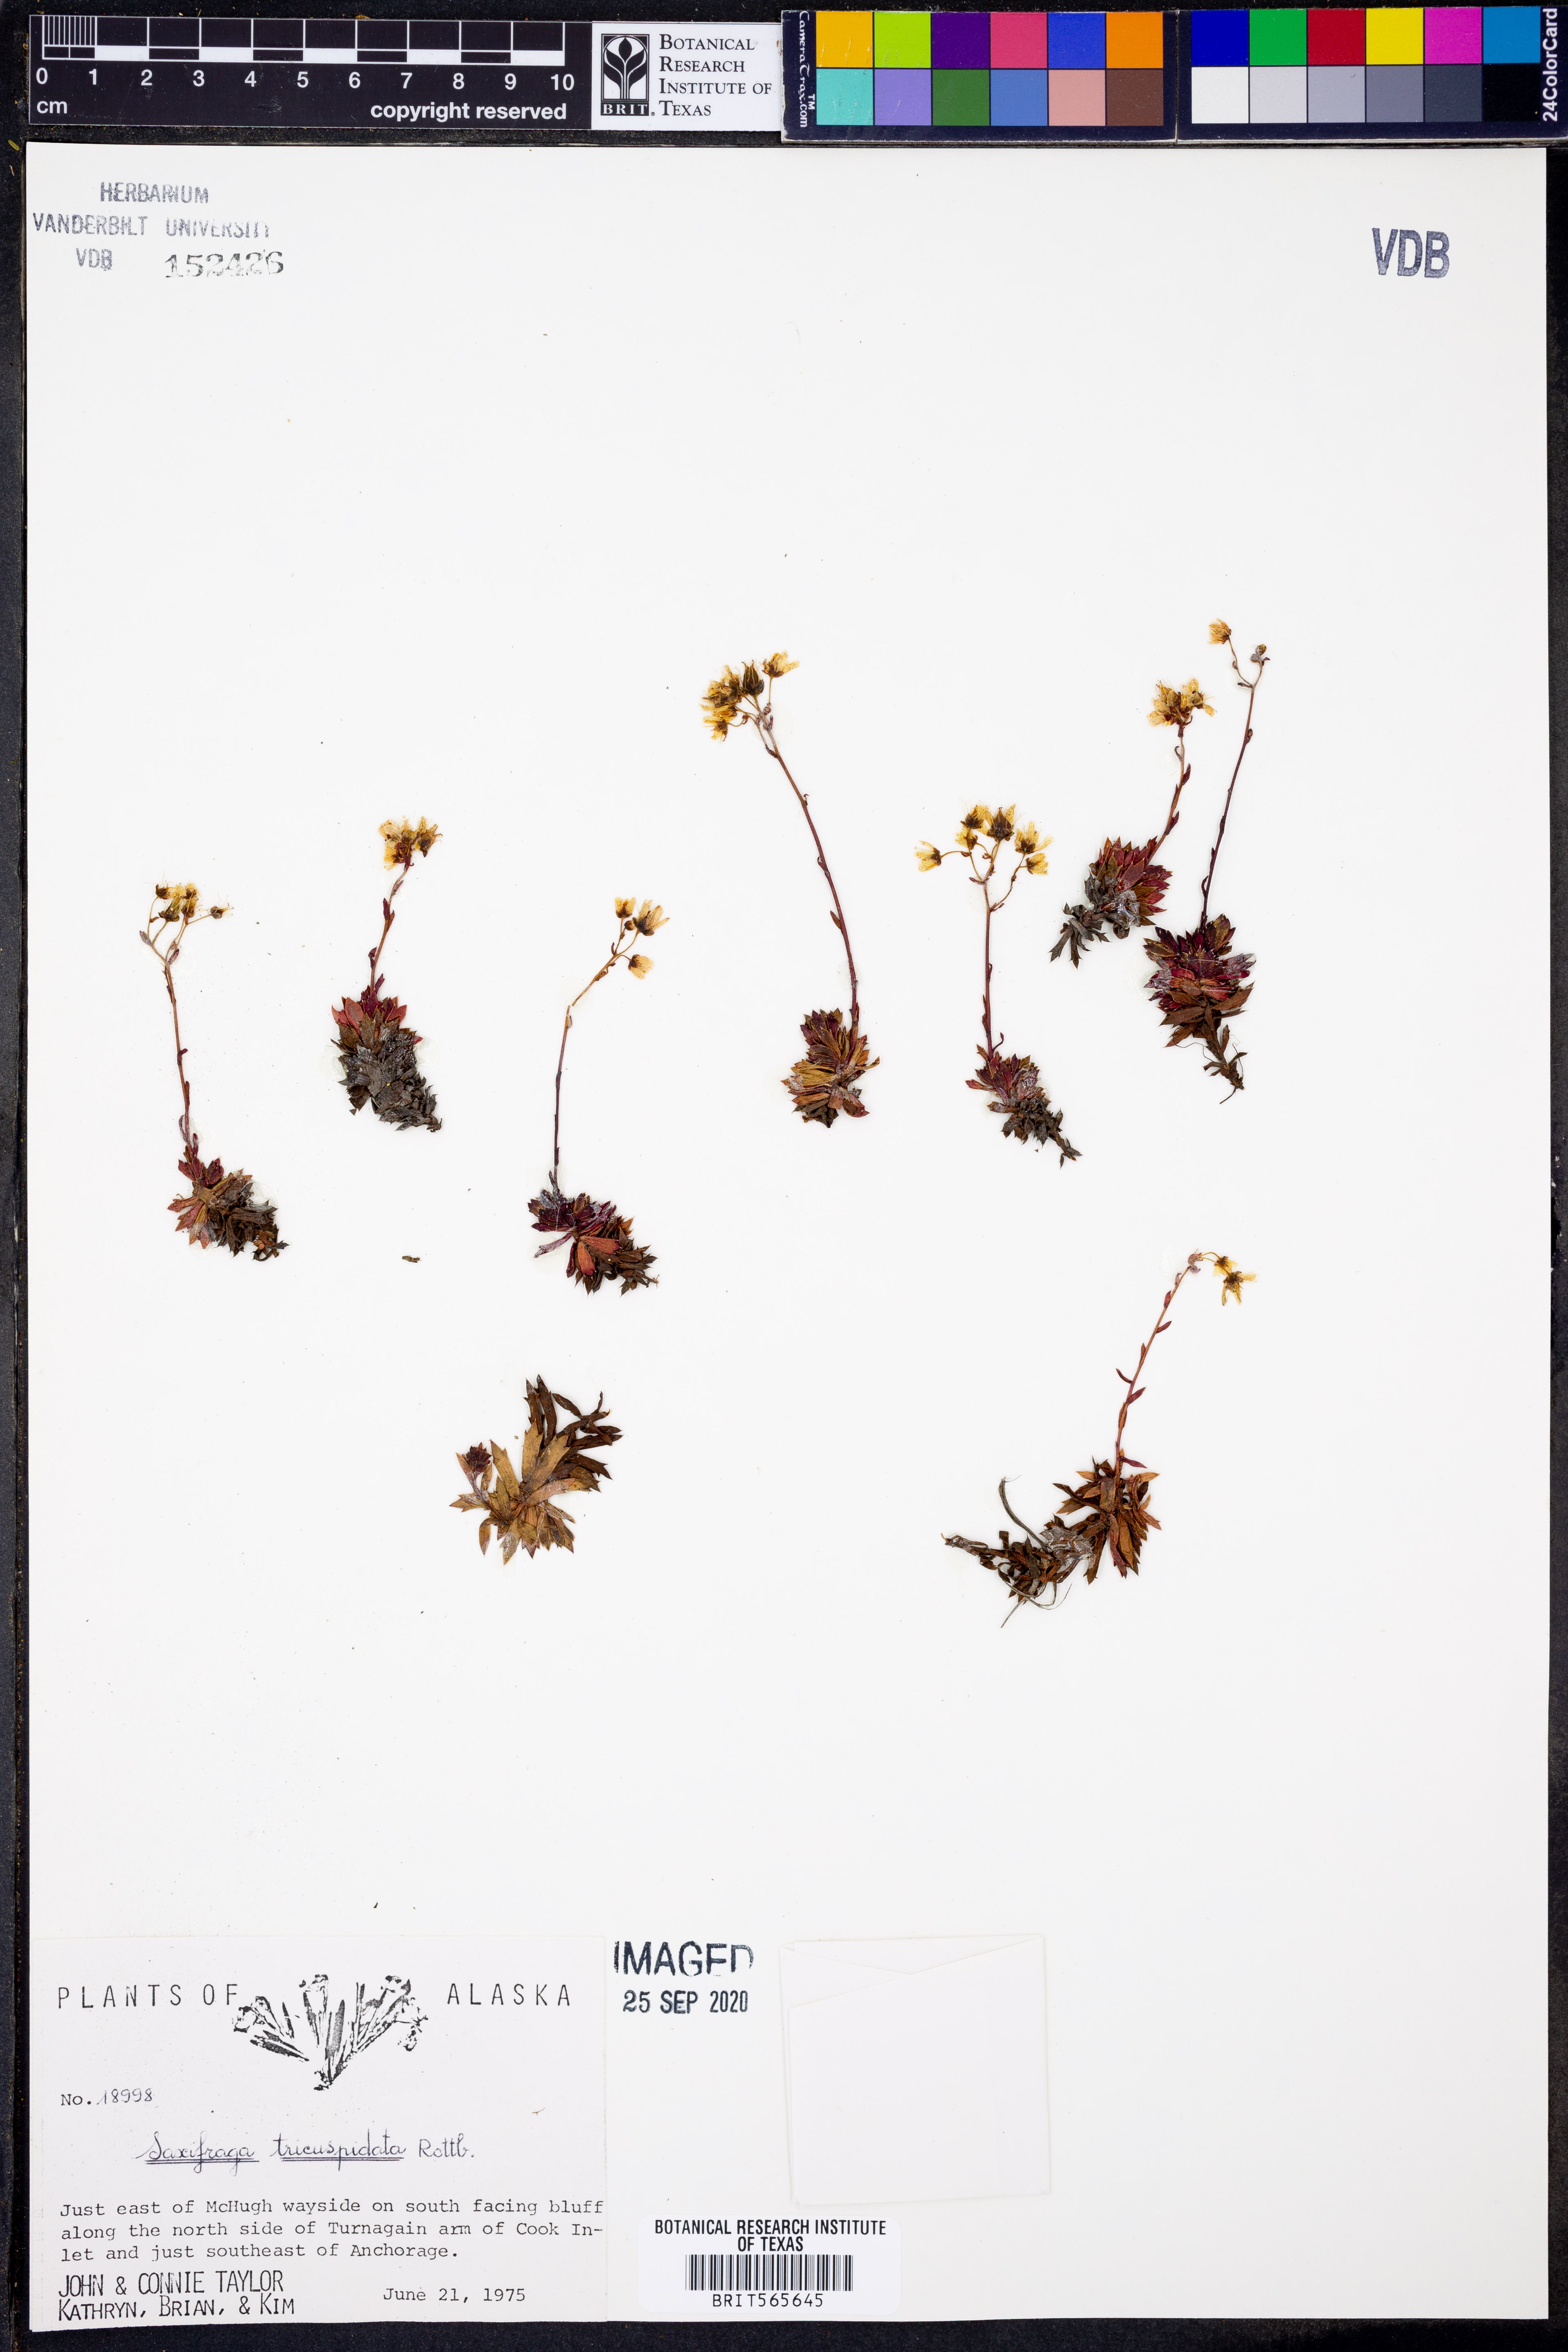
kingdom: Plantae
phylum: Tracheophyta
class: Magnoliopsida
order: Saxifragales
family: Saxifragaceae
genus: Saxifraga
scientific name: Saxifraga tricuspidata
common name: Prickly saxifrage
